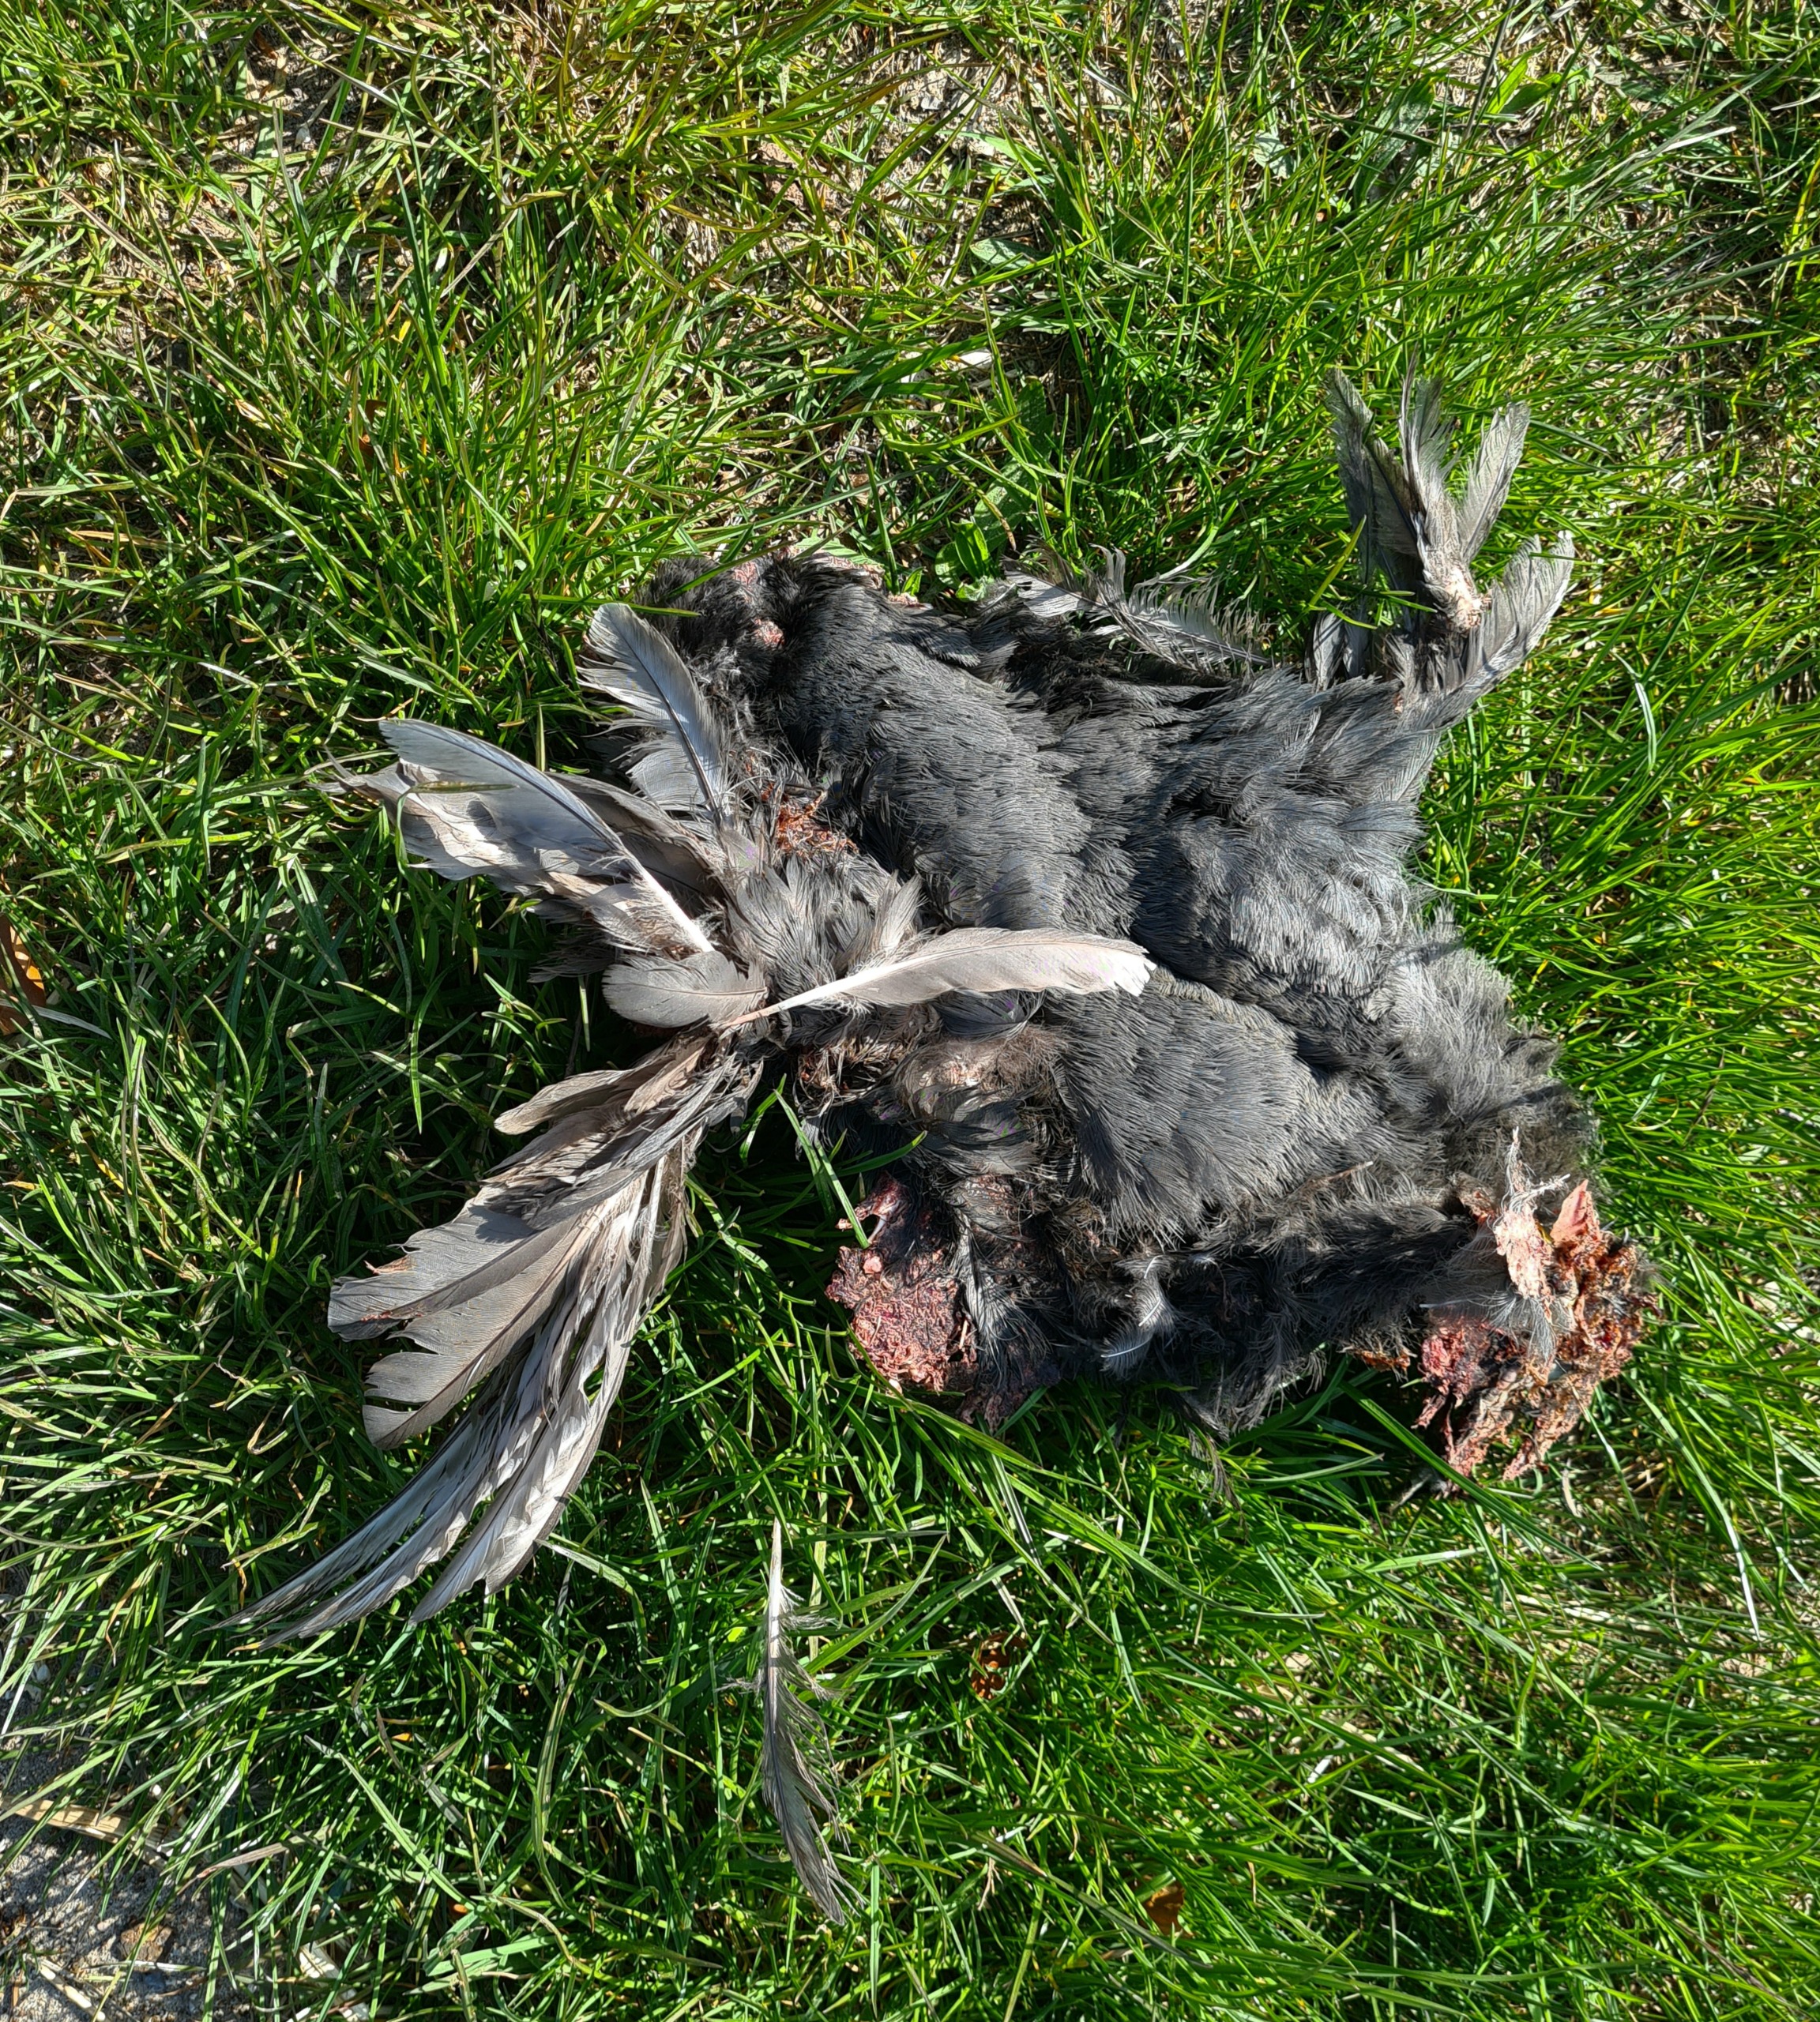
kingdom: Animalia
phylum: Chordata
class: Aves
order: Gruiformes
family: Rallidae
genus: Fulica
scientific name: Fulica atra
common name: Blishøne
